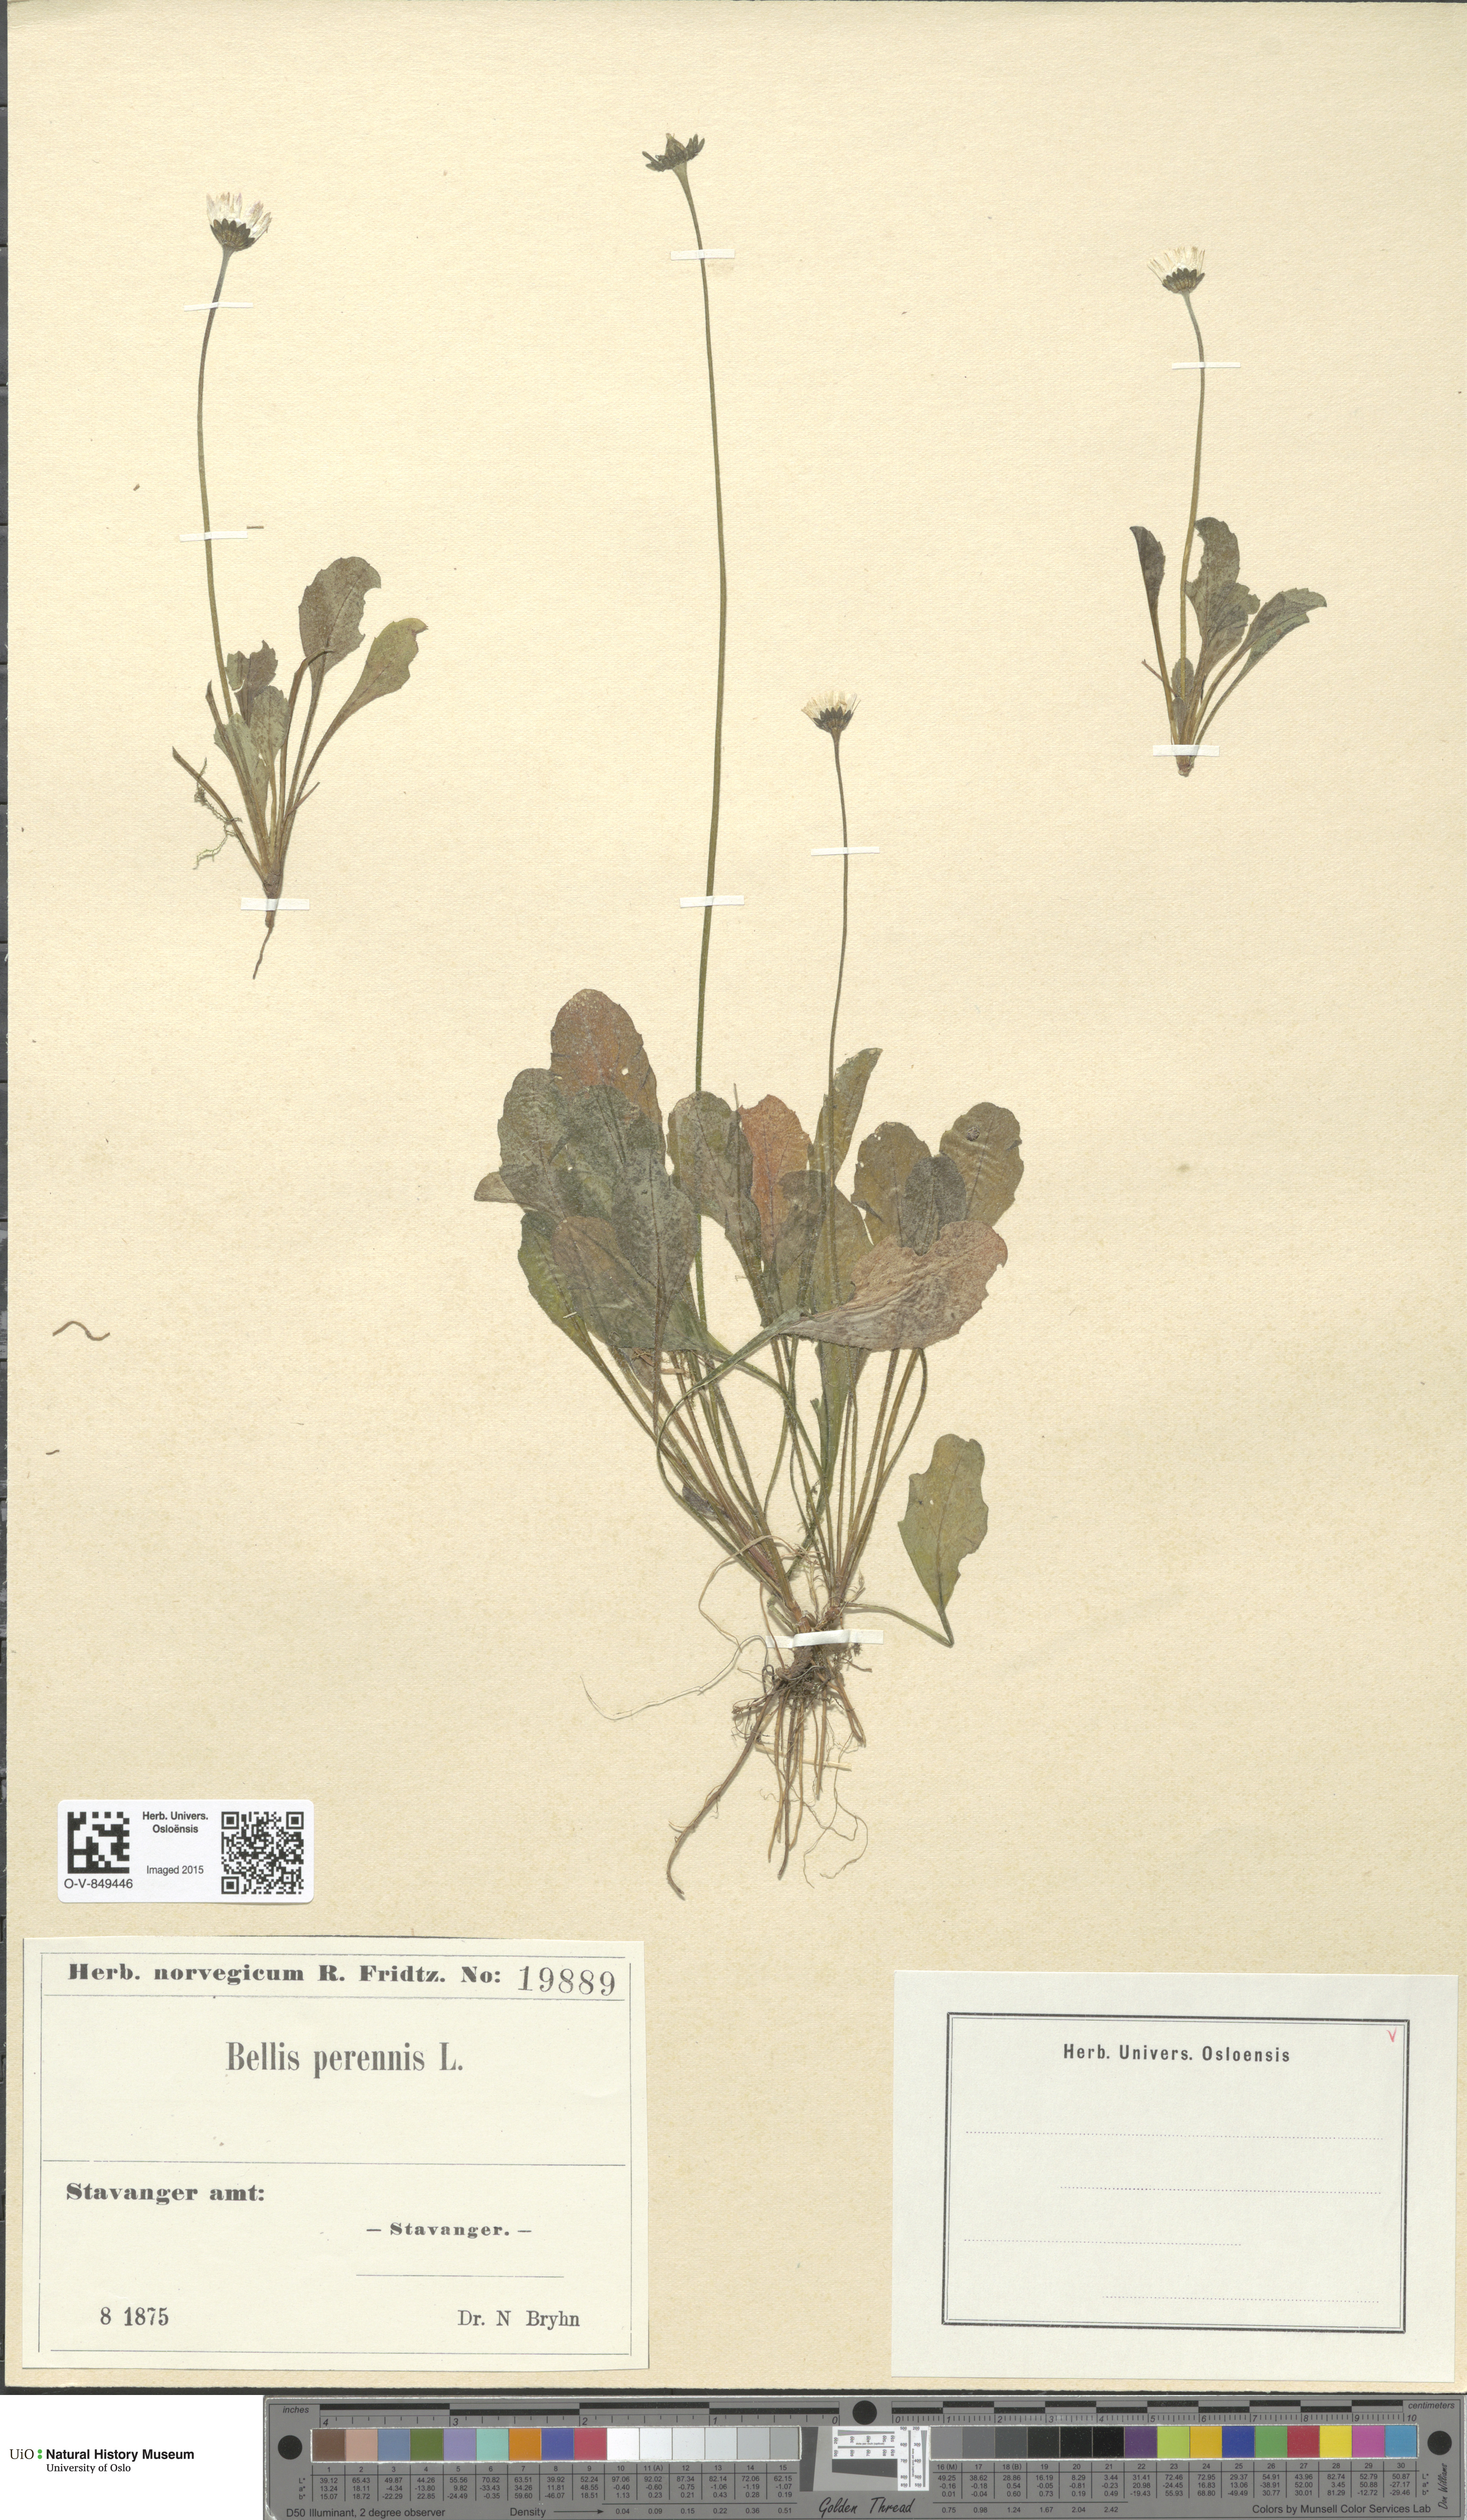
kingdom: Plantae
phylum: Tracheophyta
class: Magnoliopsida
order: Asterales
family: Asteraceae
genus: Bellis
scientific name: Bellis perennis
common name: Lawndaisy
